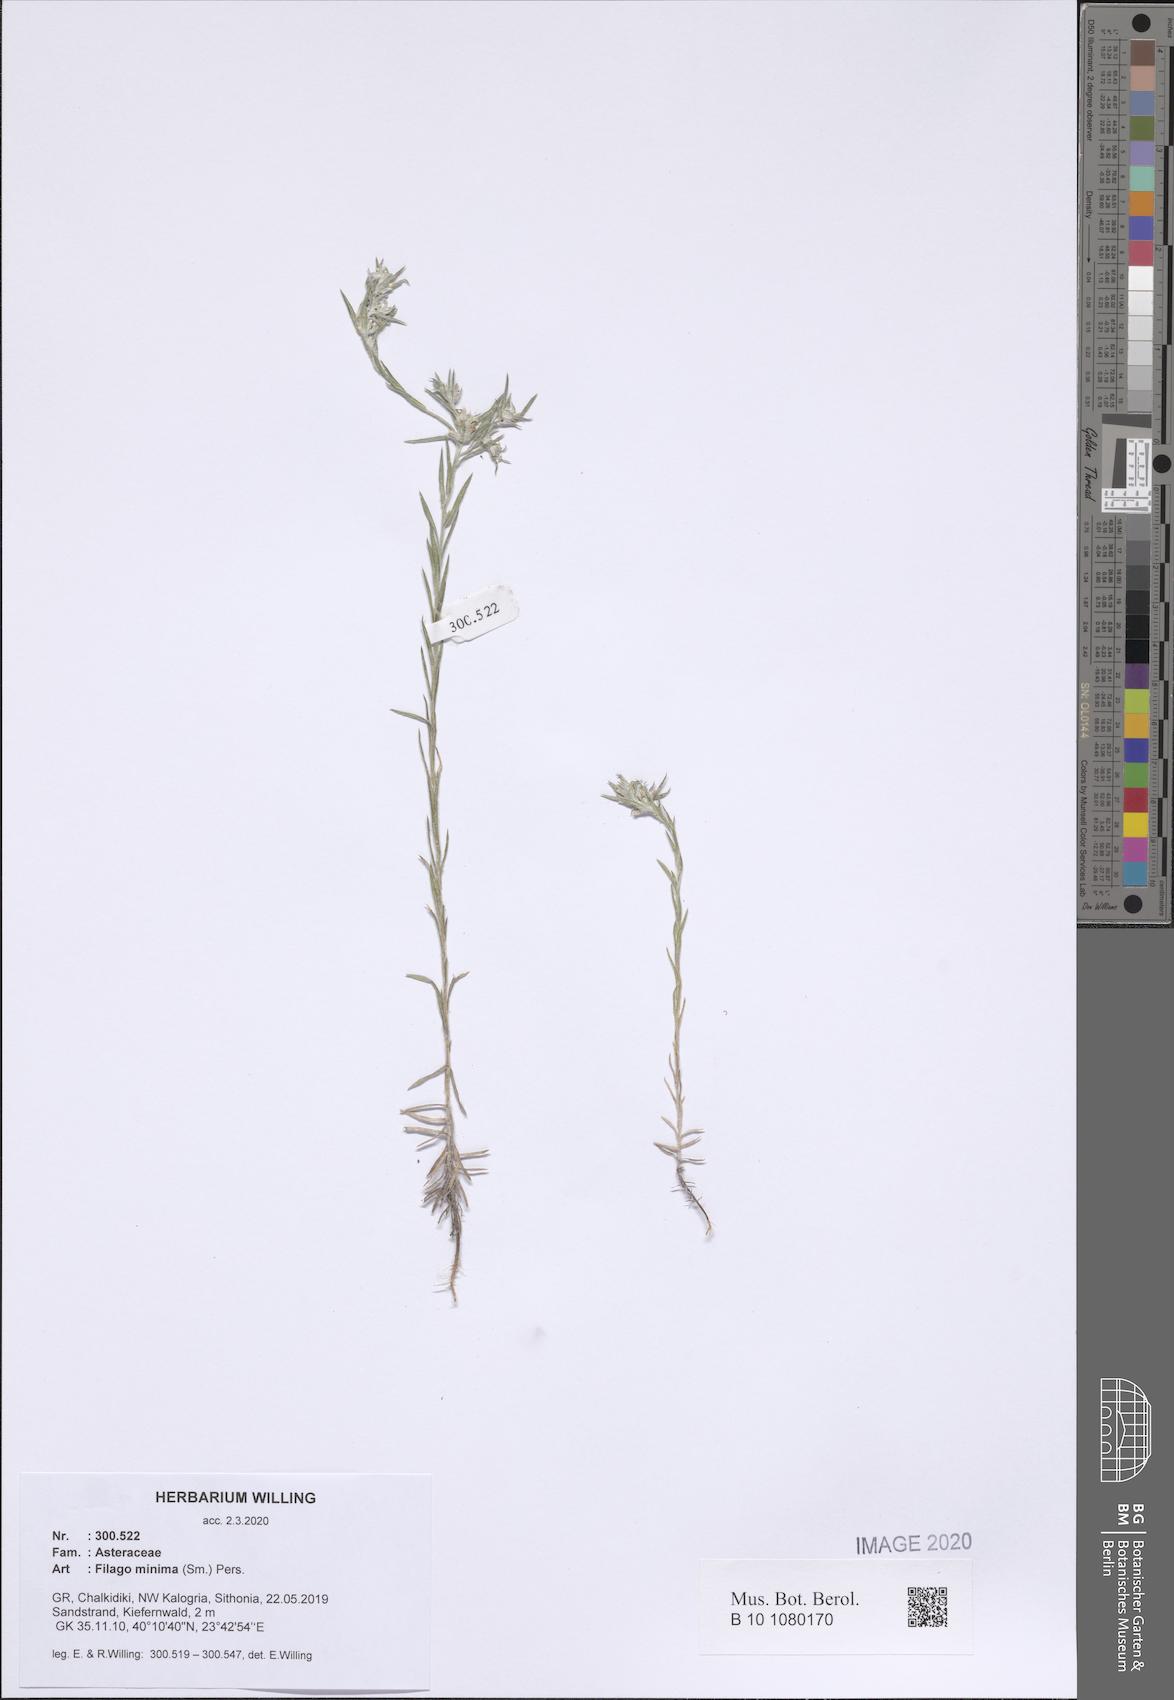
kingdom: Plantae
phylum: Tracheophyta
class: Magnoliopsida
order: Asterales
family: Asteraceae
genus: Logfia
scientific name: Logfia minima
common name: Little cottonrose
